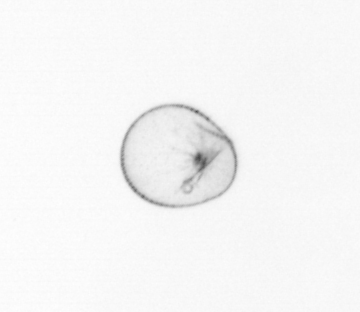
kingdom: Chromista
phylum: Myzozoa
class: Dinophyceae
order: Noctilucales
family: Noctilucaceae
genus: Noctiluca
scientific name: Noctiluca scintillans
